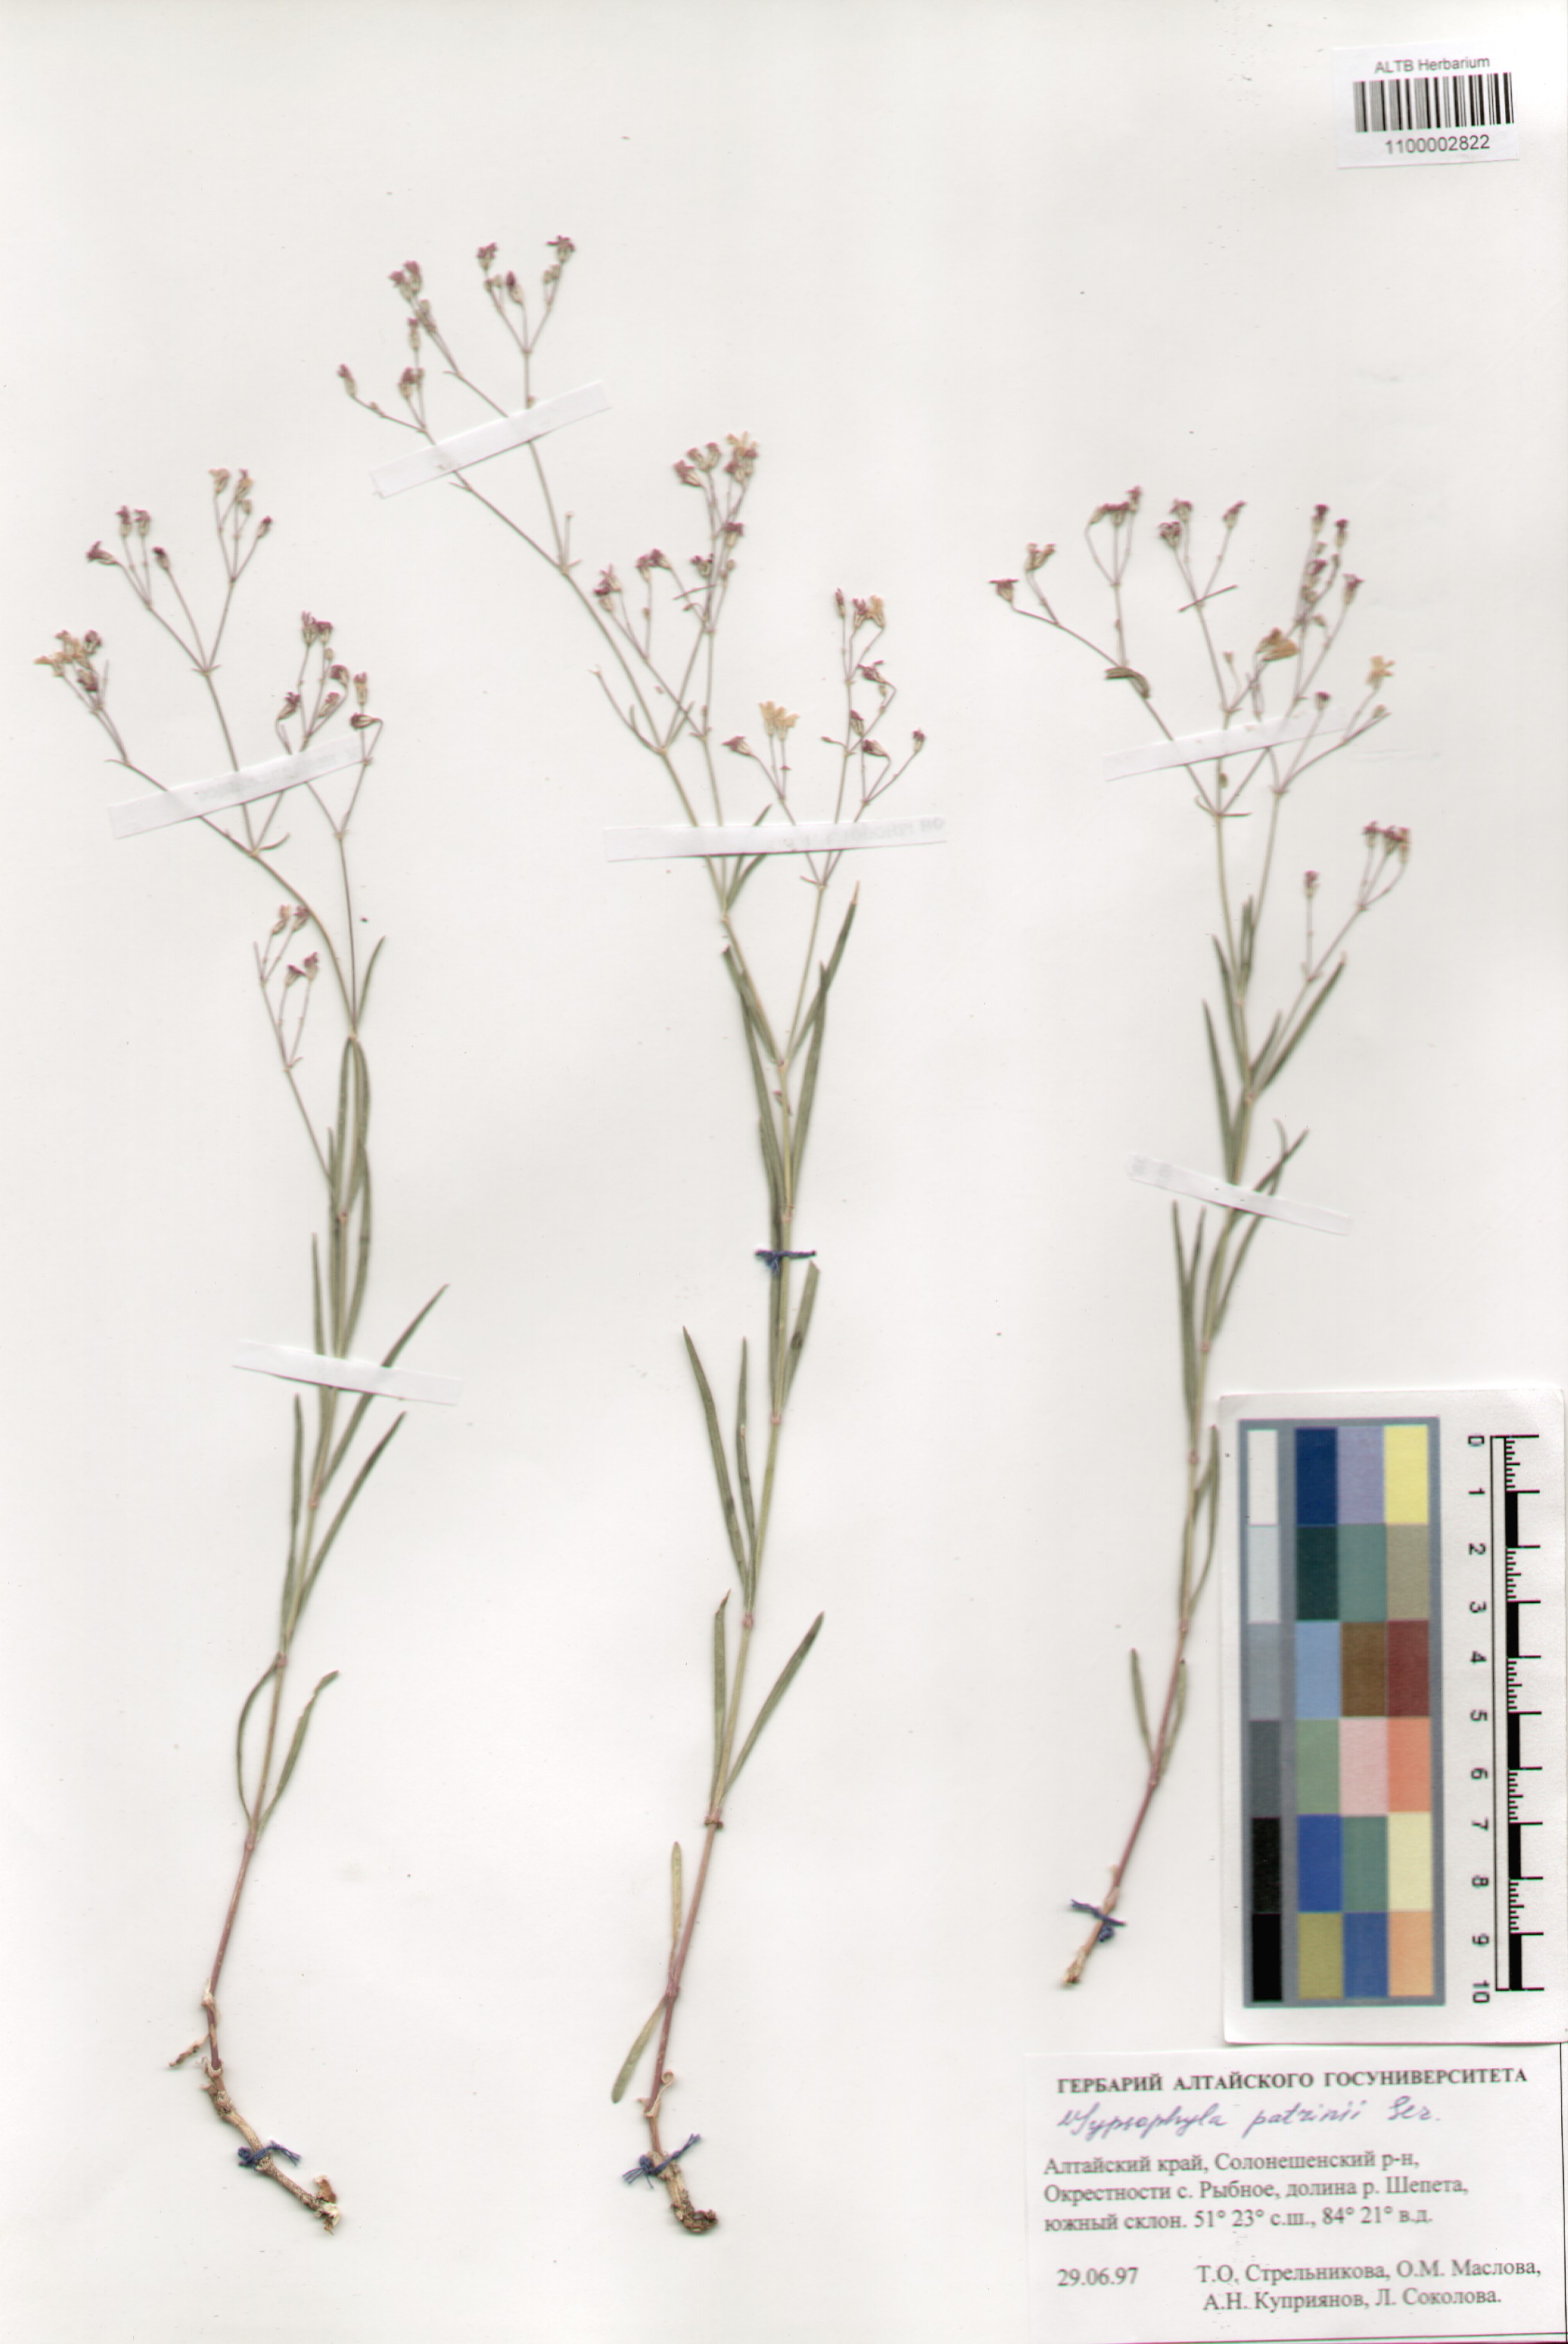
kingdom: Plantae
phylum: Tracheophyta
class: Magnoliopsida
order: Caryophyllales
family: Caryophyllaceae
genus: Gypsophila
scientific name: Gypsophila patrinii
